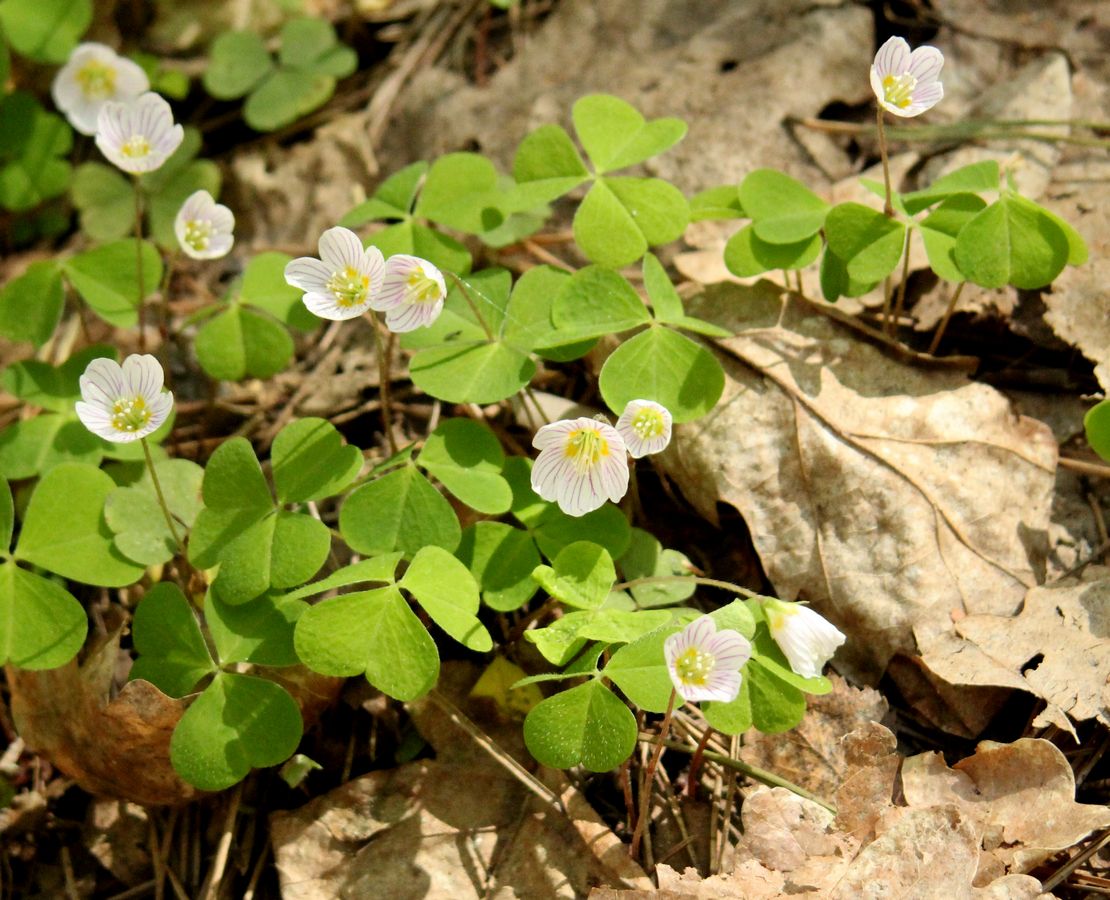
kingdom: Plantae
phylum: Tracheophyta
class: Magnoliopsida
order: Oxalidales
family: Oxalidaceae
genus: Oxalis
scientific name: Oxalis acetosella
